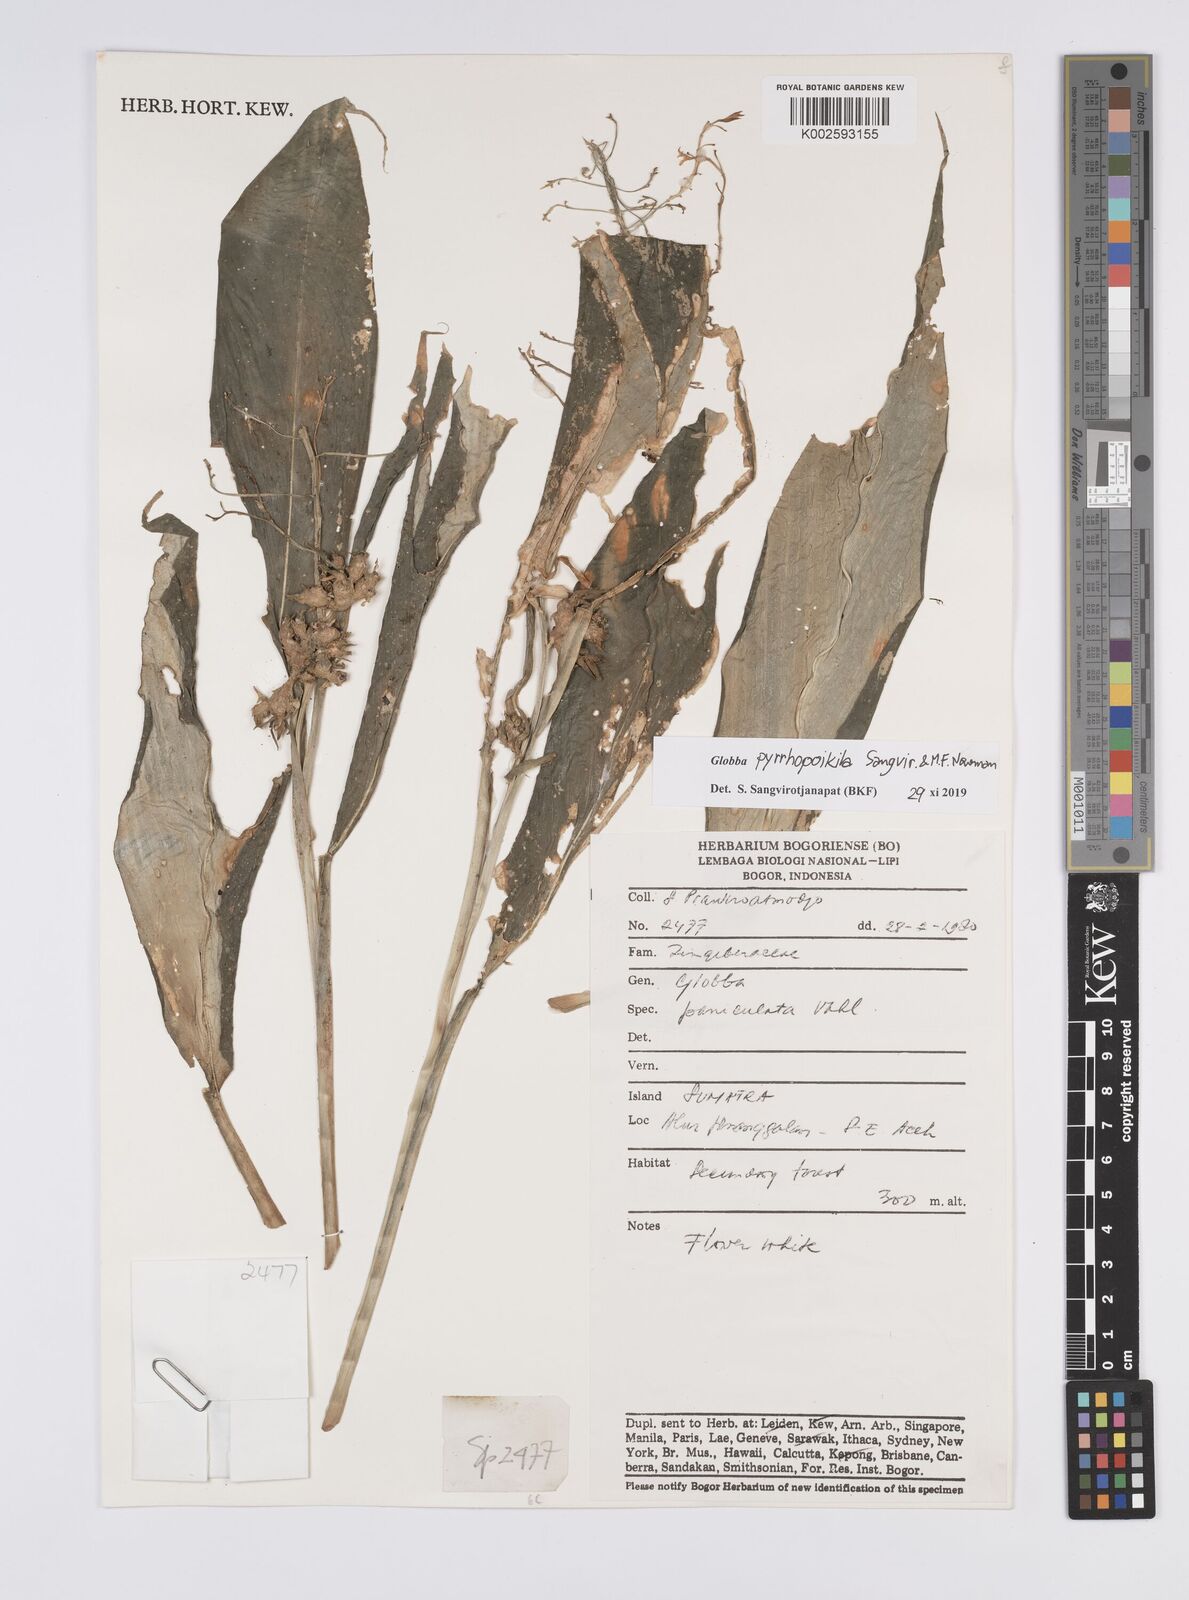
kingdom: Plantae
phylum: Tracheophyta
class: Liliopsida
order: Zingiberales
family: Zingiberaceae
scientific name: Zingiberaceae
